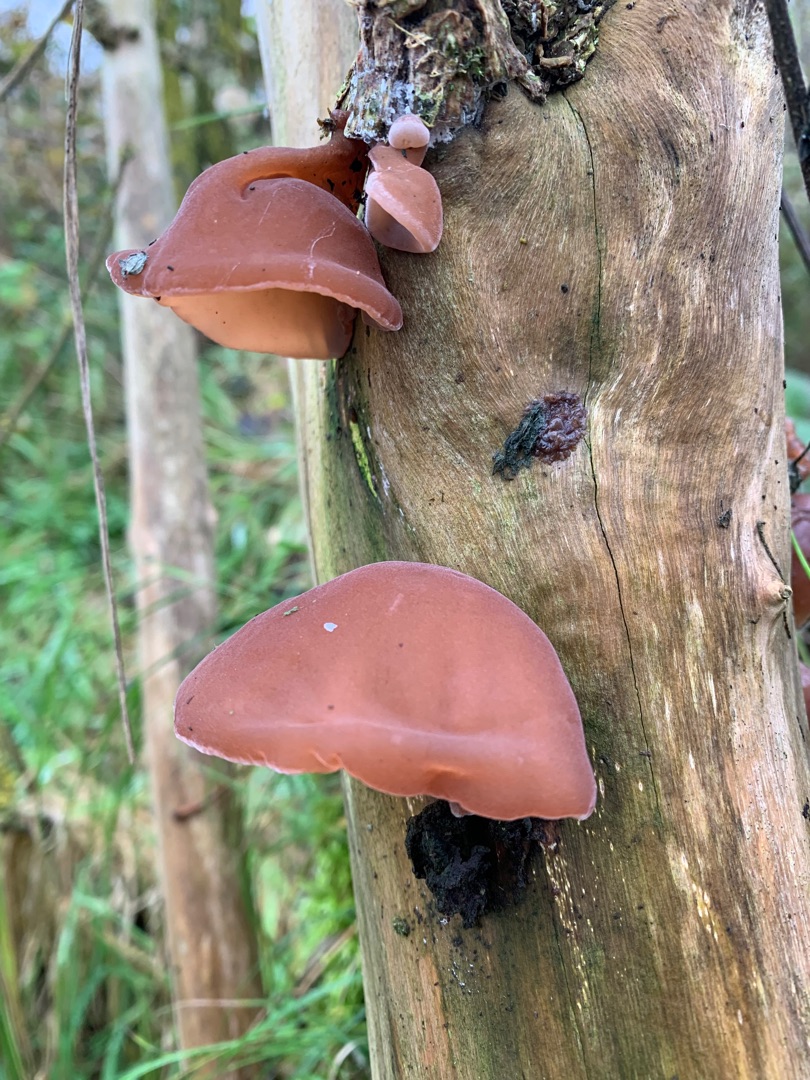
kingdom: Fungi
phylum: Basidiomycota
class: Agaricomycetes
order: Auriculariales
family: Auriculariaceae
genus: Auricularia
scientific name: Auricularia auricula-judae
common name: Almindelig judasøre
